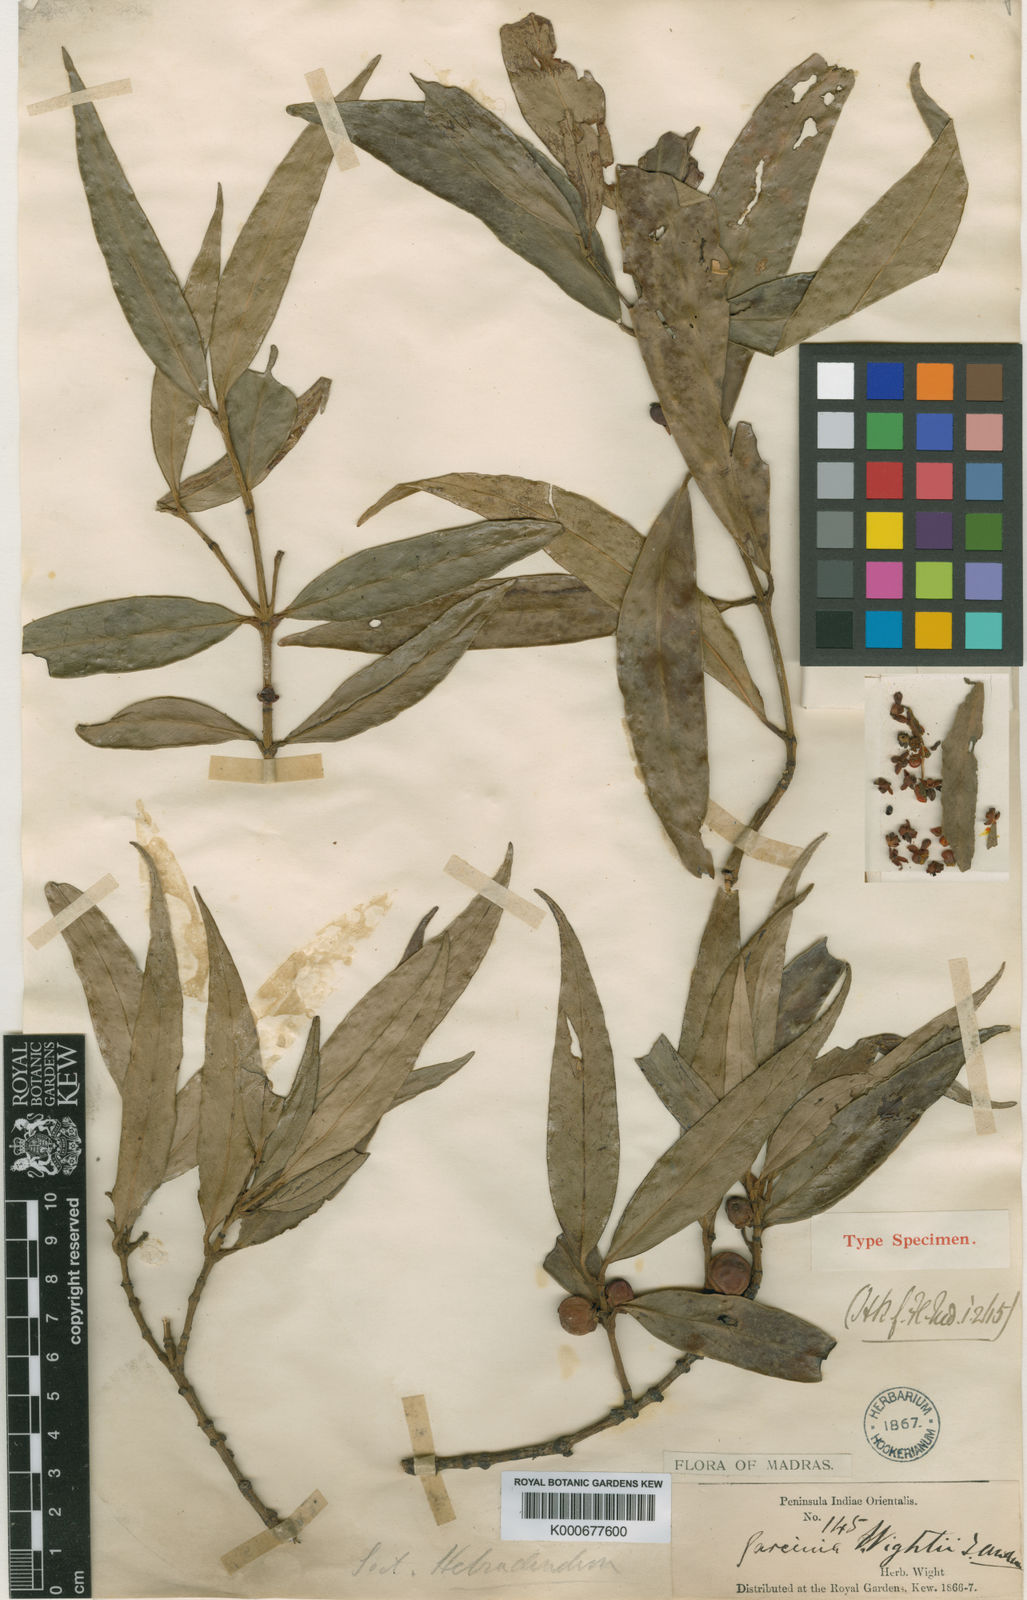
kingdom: Plantae
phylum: Tracheophyta
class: Magnoliopsida
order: Malpighiales
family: Clusiaceae
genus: Garcinia
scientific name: Garcinia wightii
